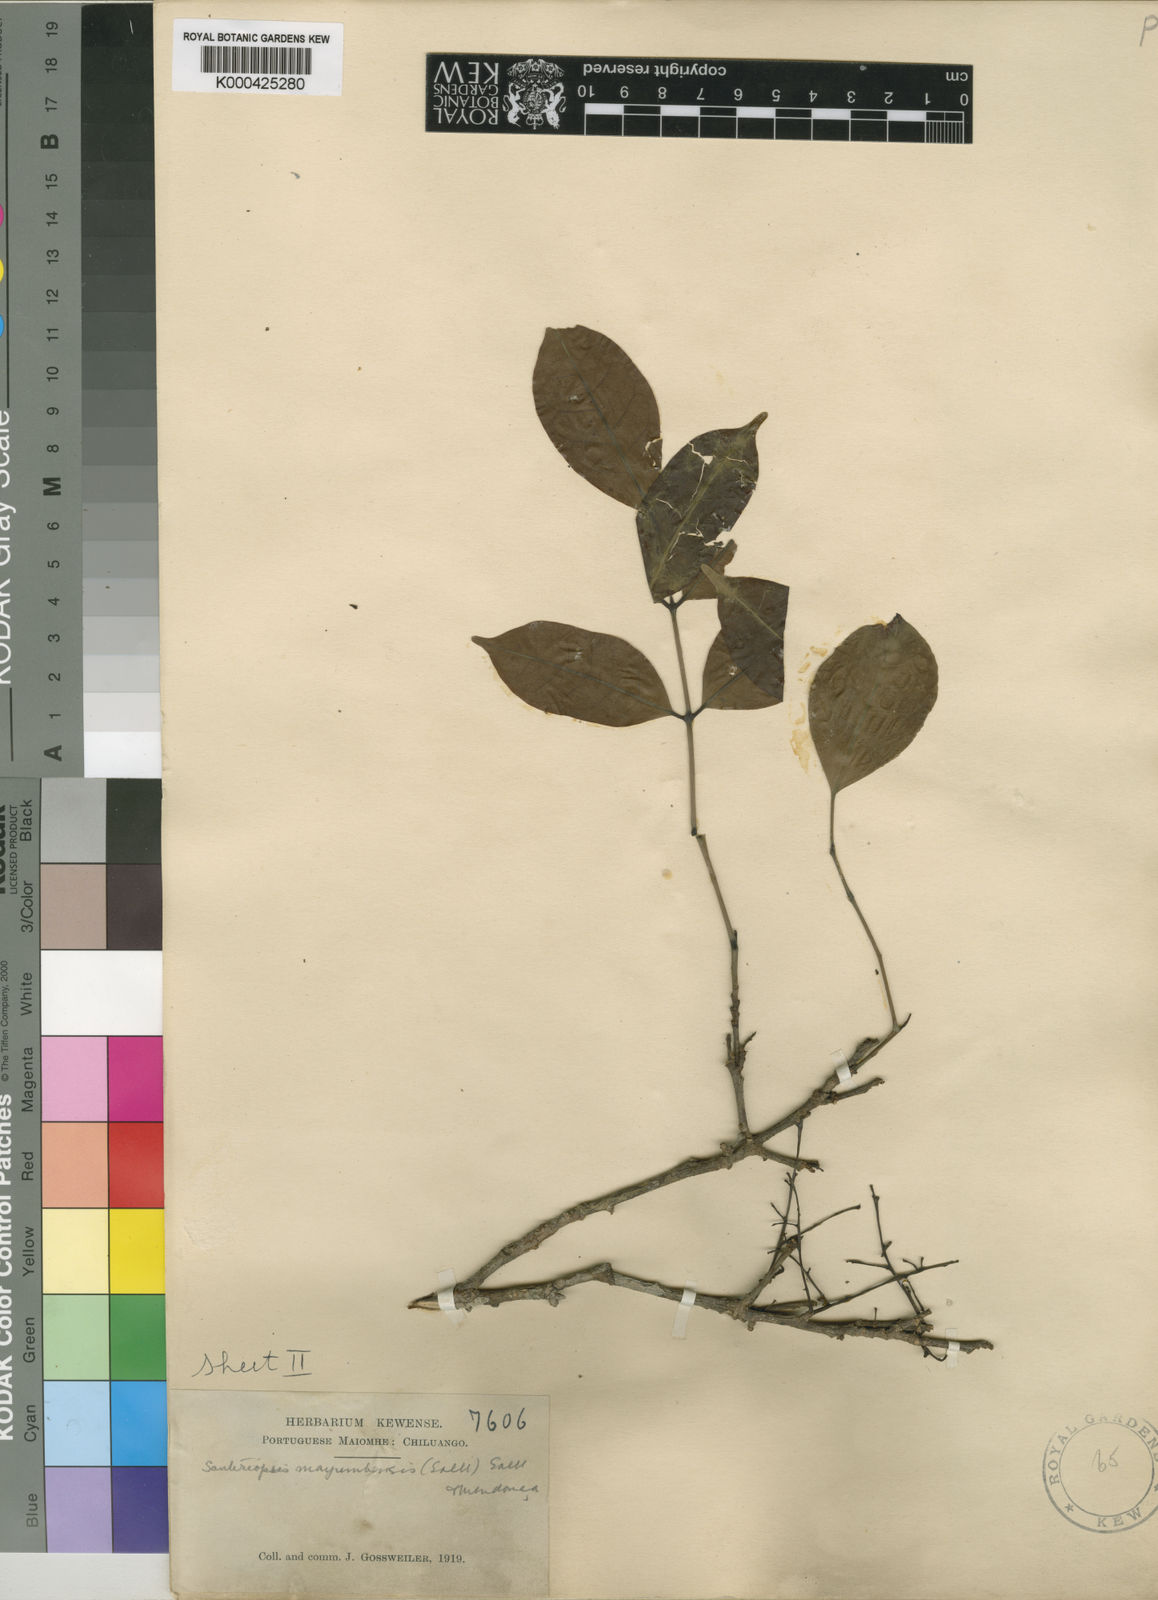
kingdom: Plantae
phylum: Tracheophyta
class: Magnoliopsida
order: Sapindales
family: Burseraceae
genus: Santiria
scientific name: Santiria
